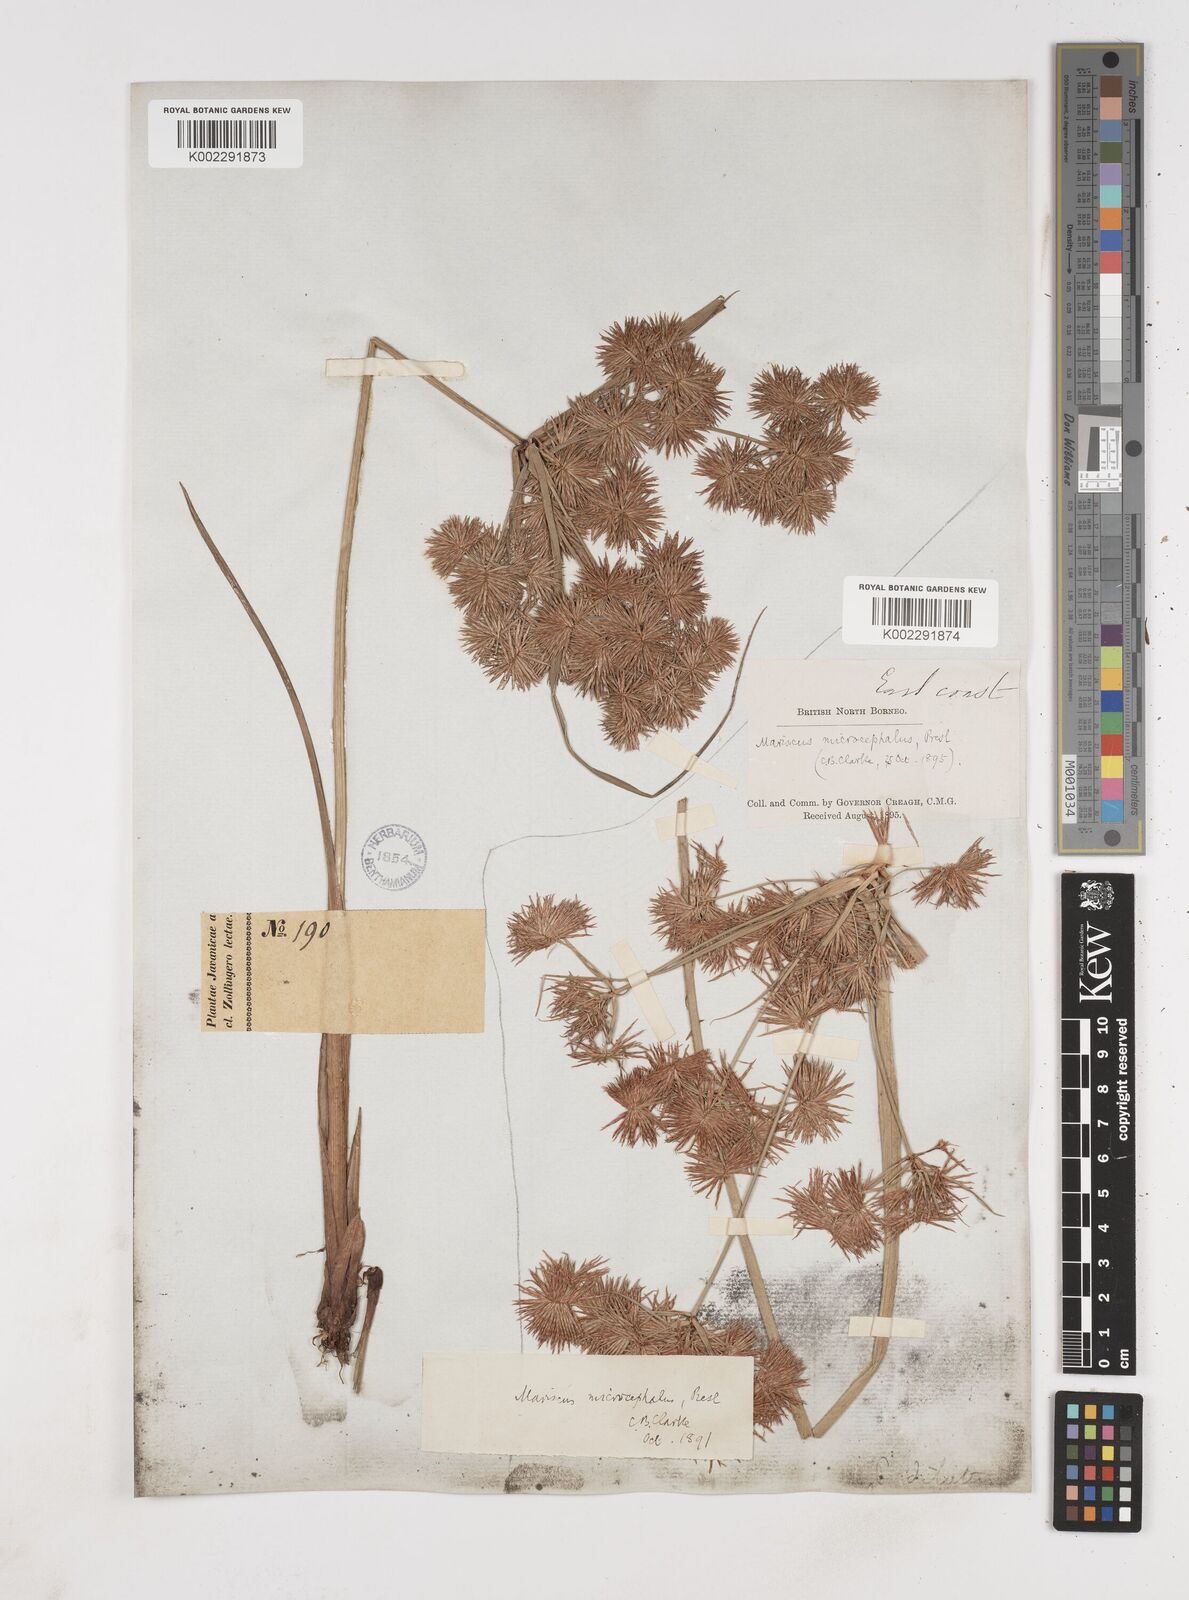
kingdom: Plantae
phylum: Tracheophyta
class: Liliopsida
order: Poales
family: Cyperaceae
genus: Cyperus
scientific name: Cyperus compactus
